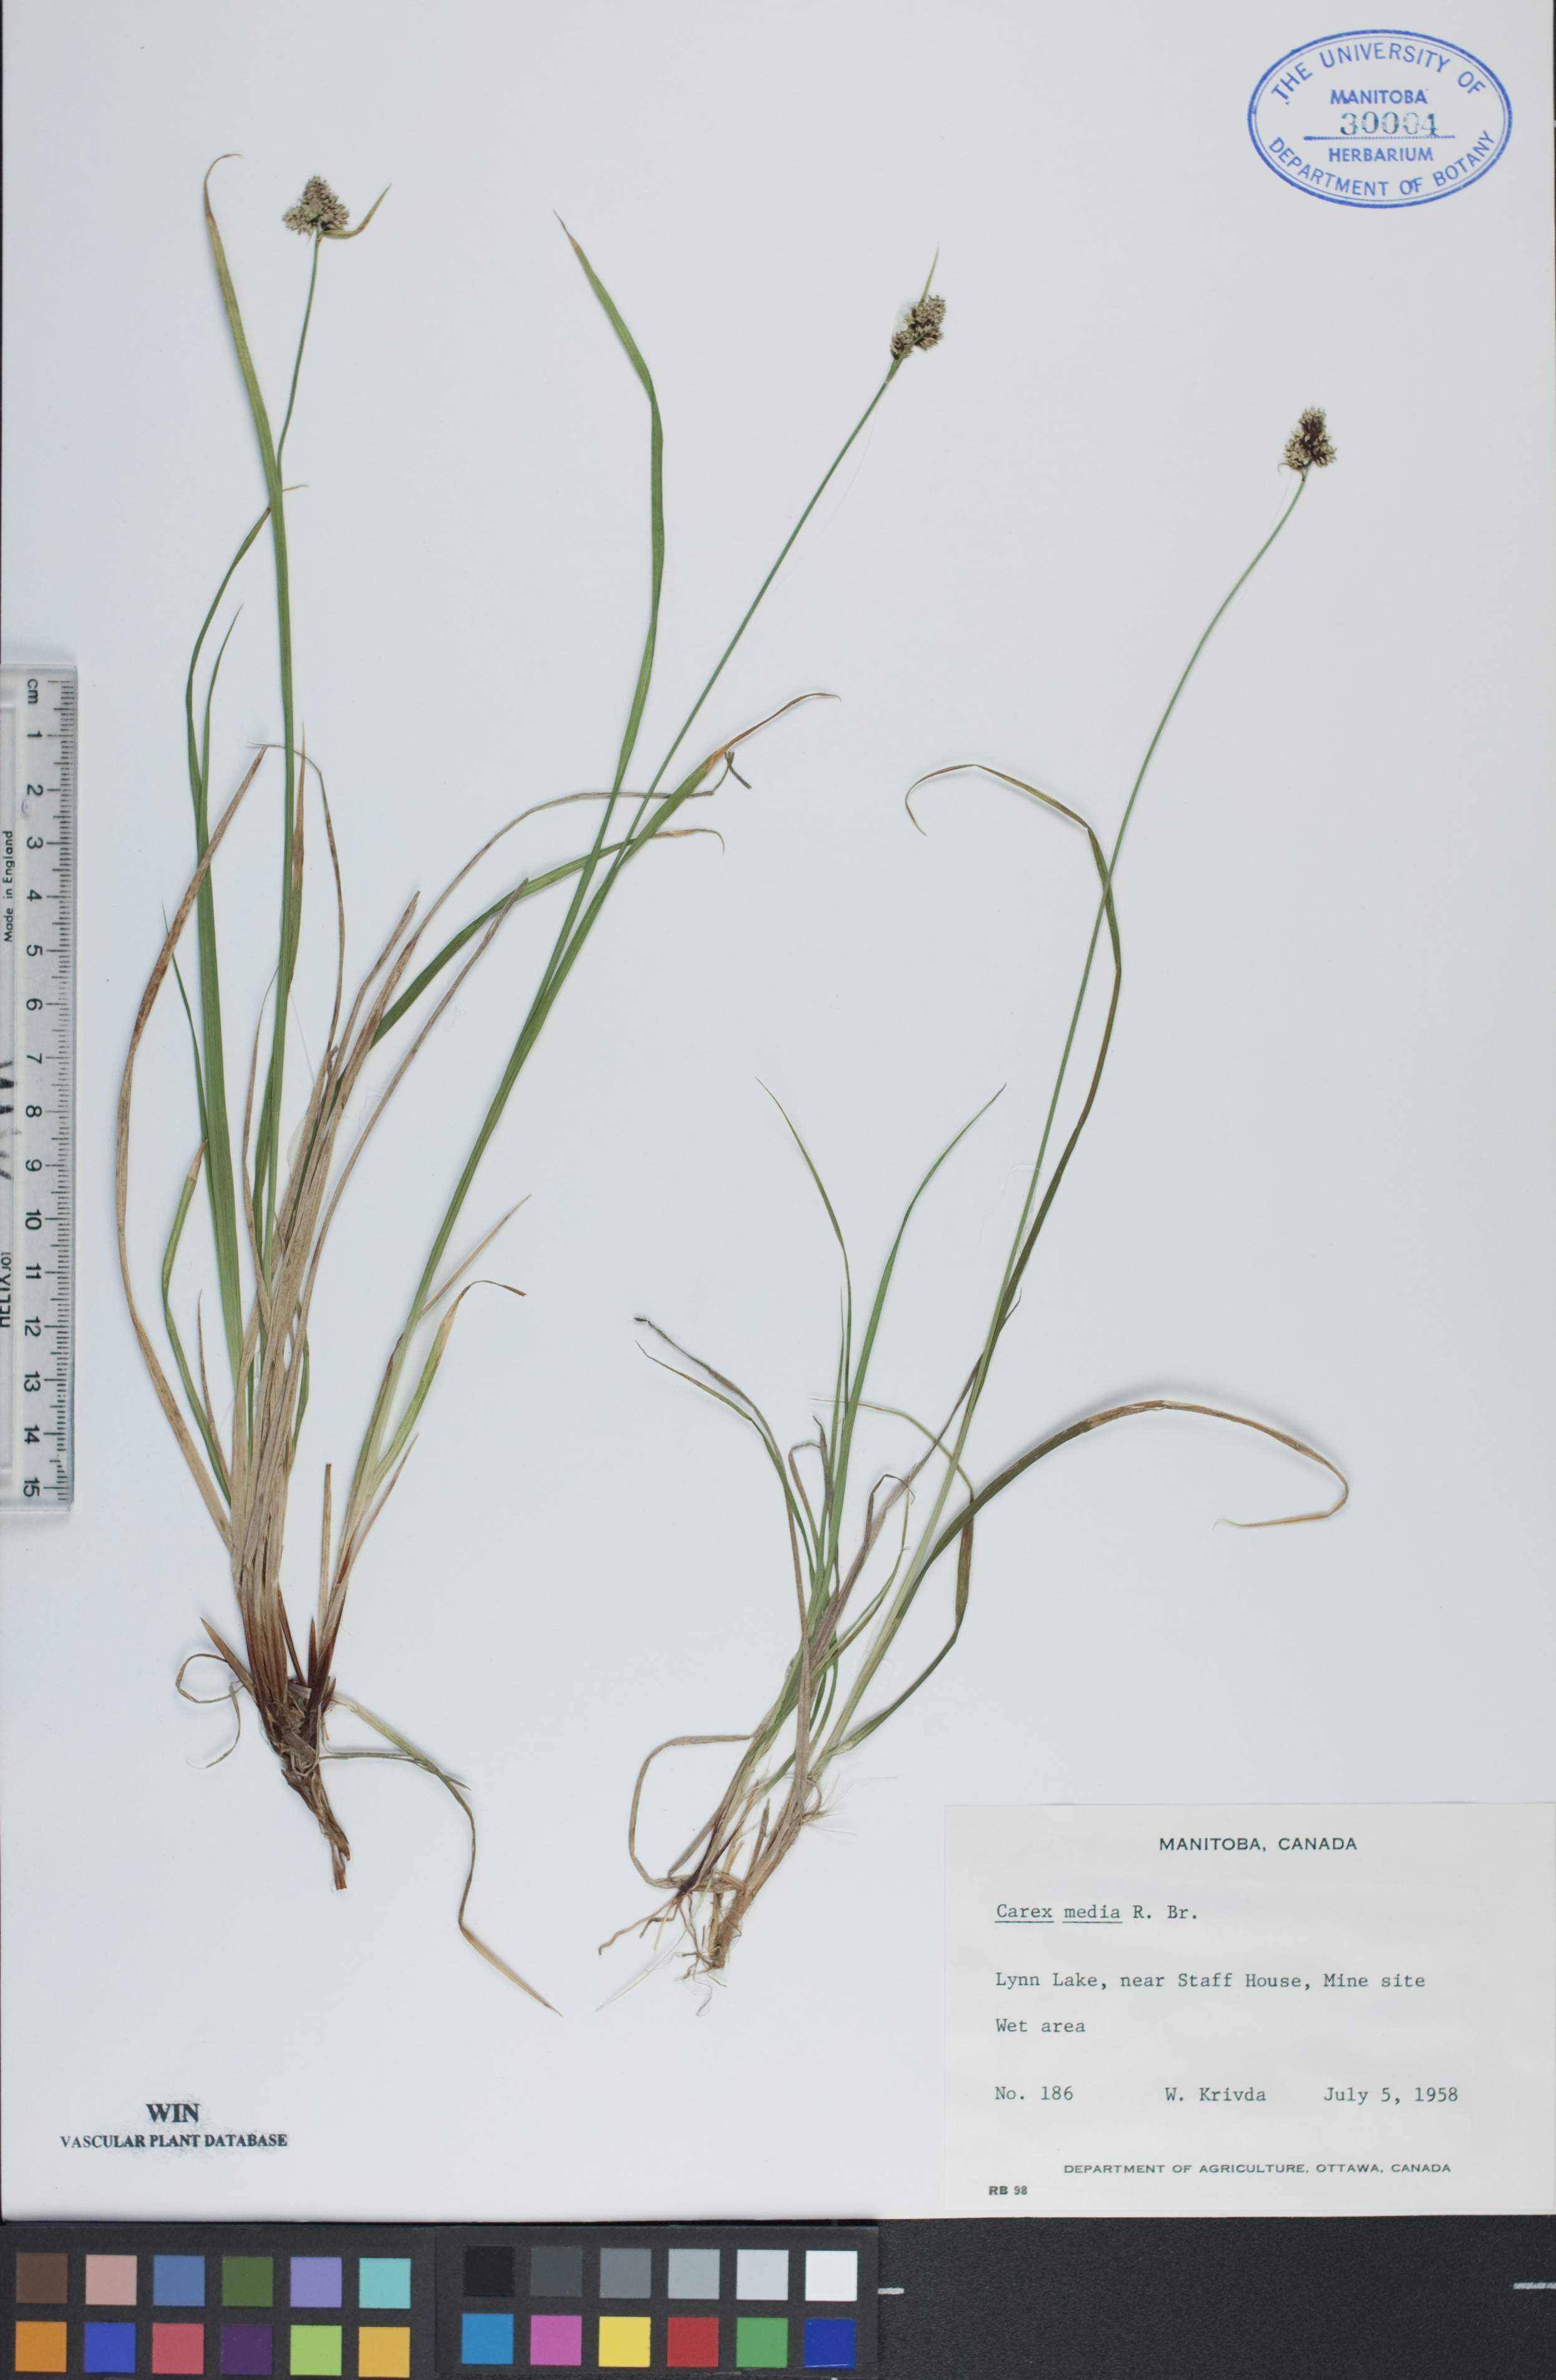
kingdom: Plantae
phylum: Tracheophyta
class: Liliopsida
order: Poales
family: Cyperaceae
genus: Carex
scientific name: Carex media
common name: Alpine sedge
